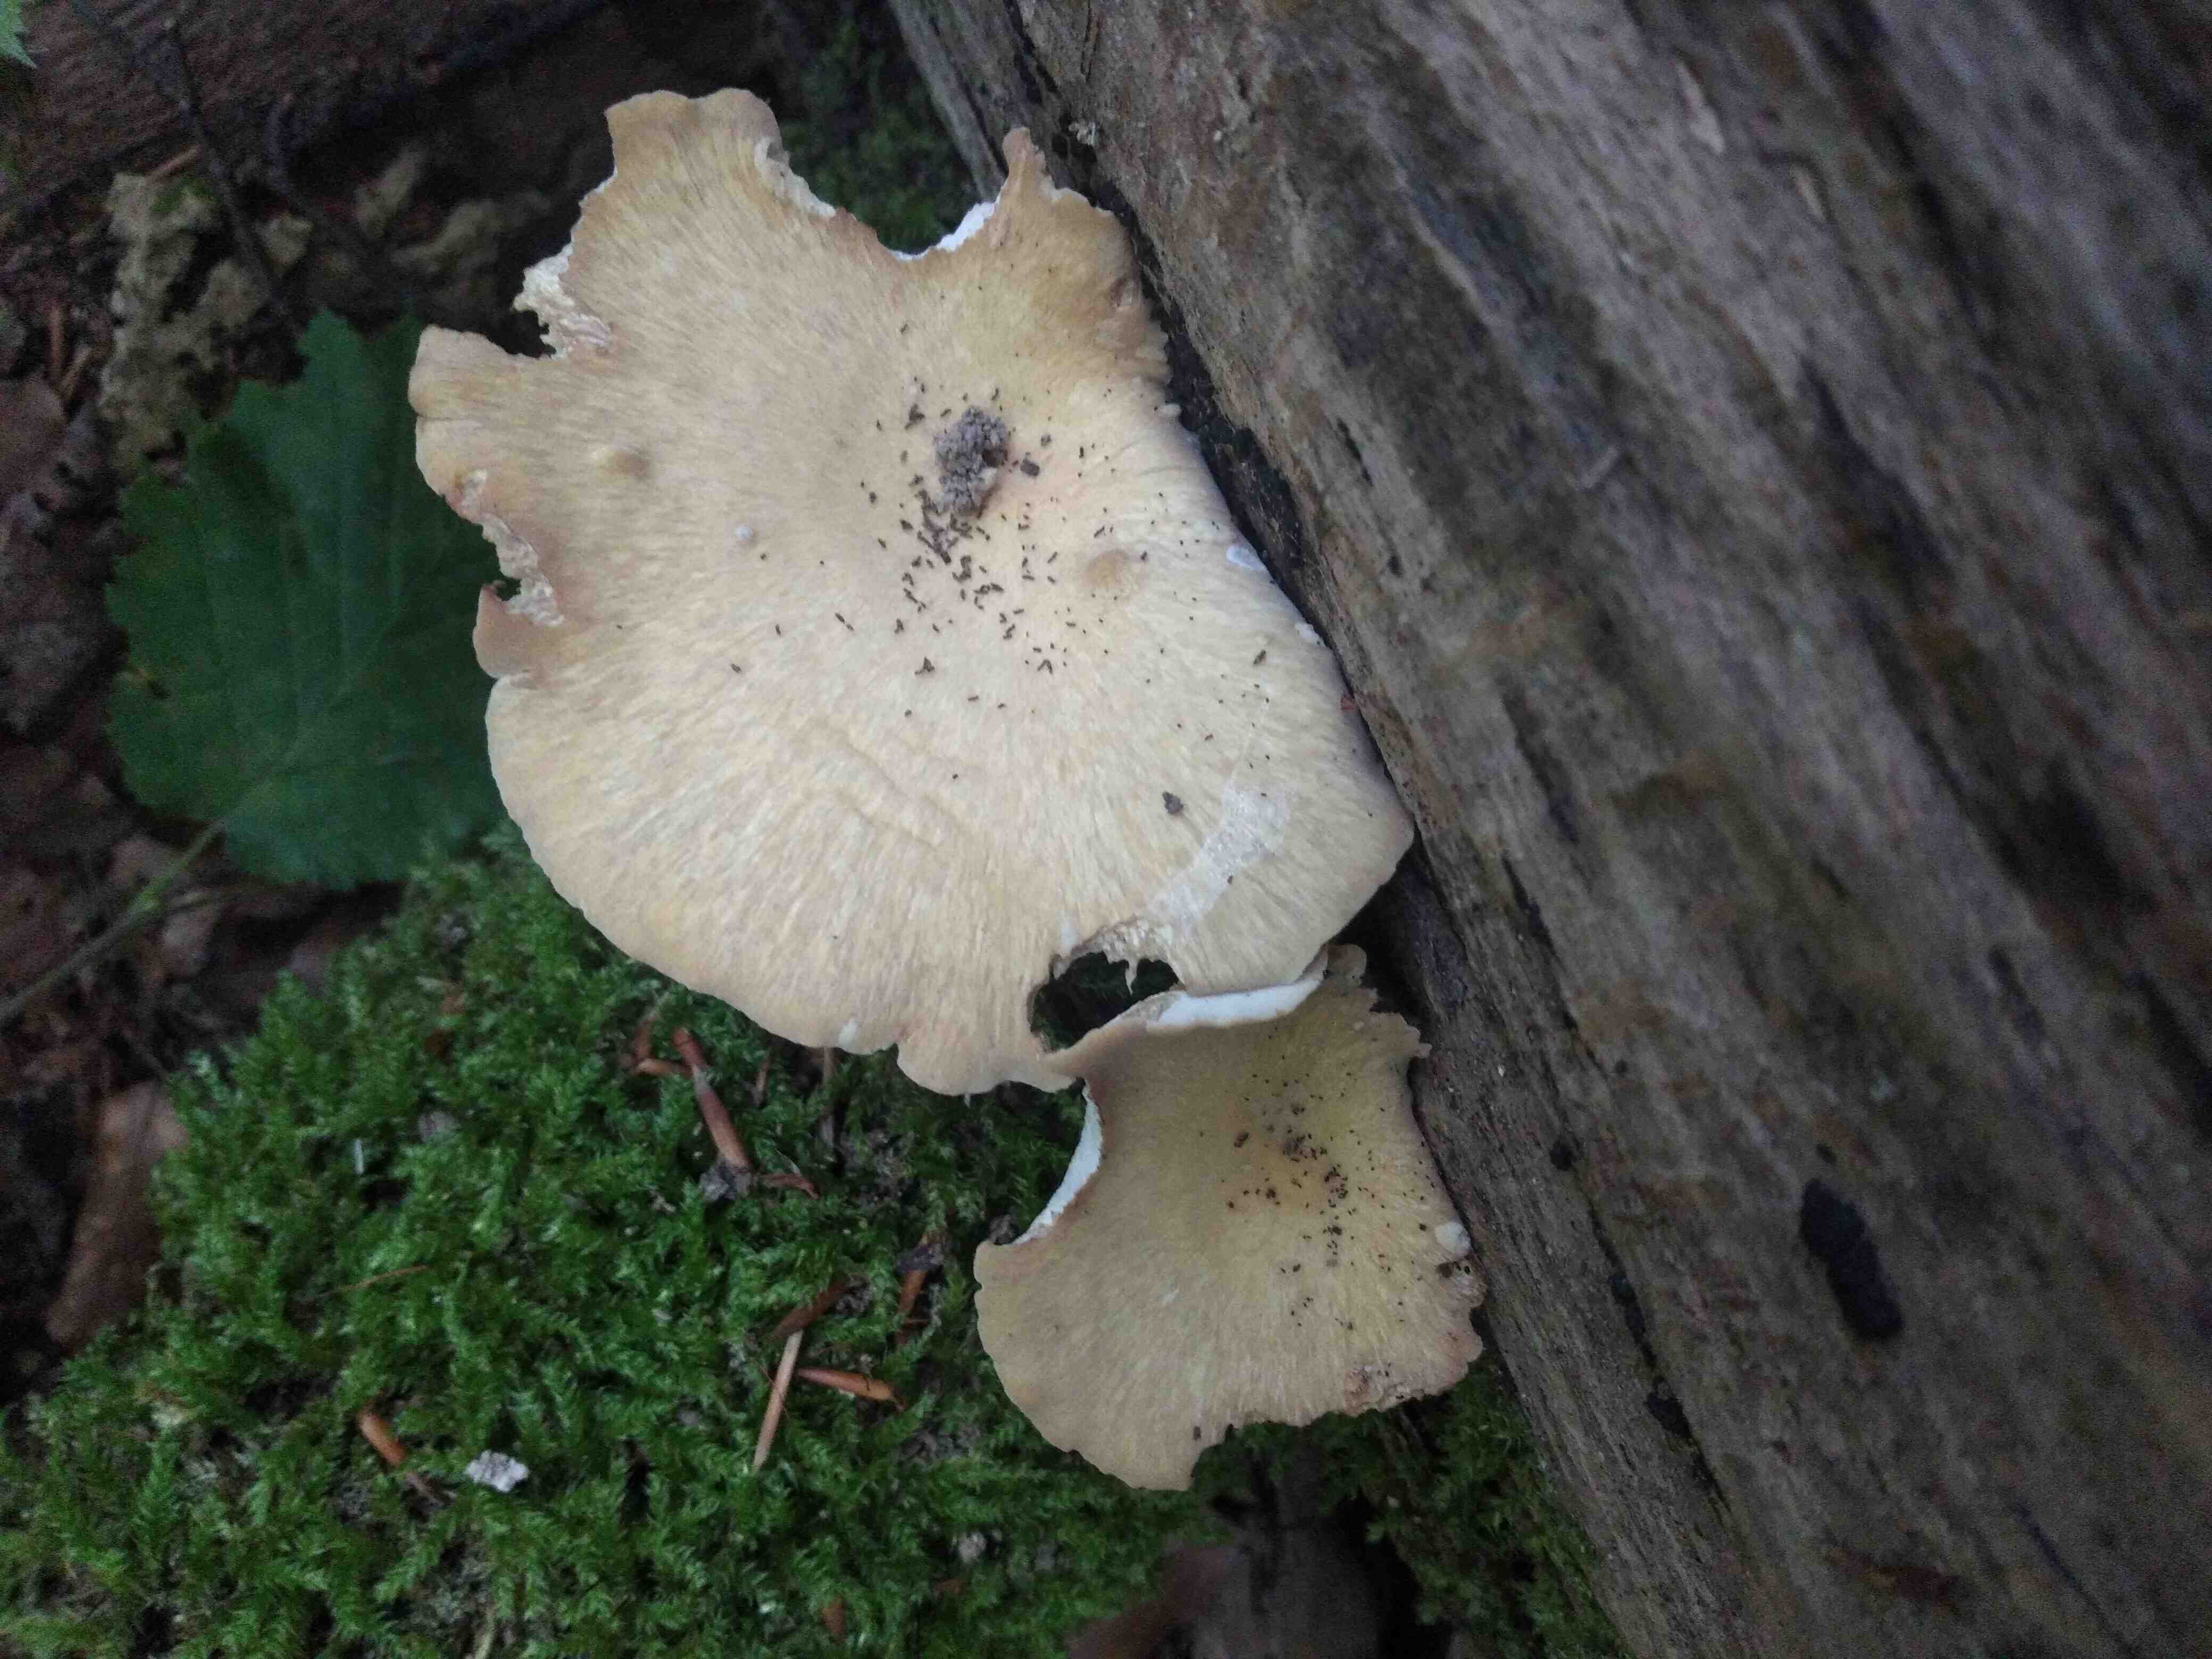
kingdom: Fungi
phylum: Basidiomycota
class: Agaricomycetes
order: Polyporales
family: Polyporaceae
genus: Cerioporus
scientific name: Cerioporus varius
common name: foranderlig stilkporesvamp
